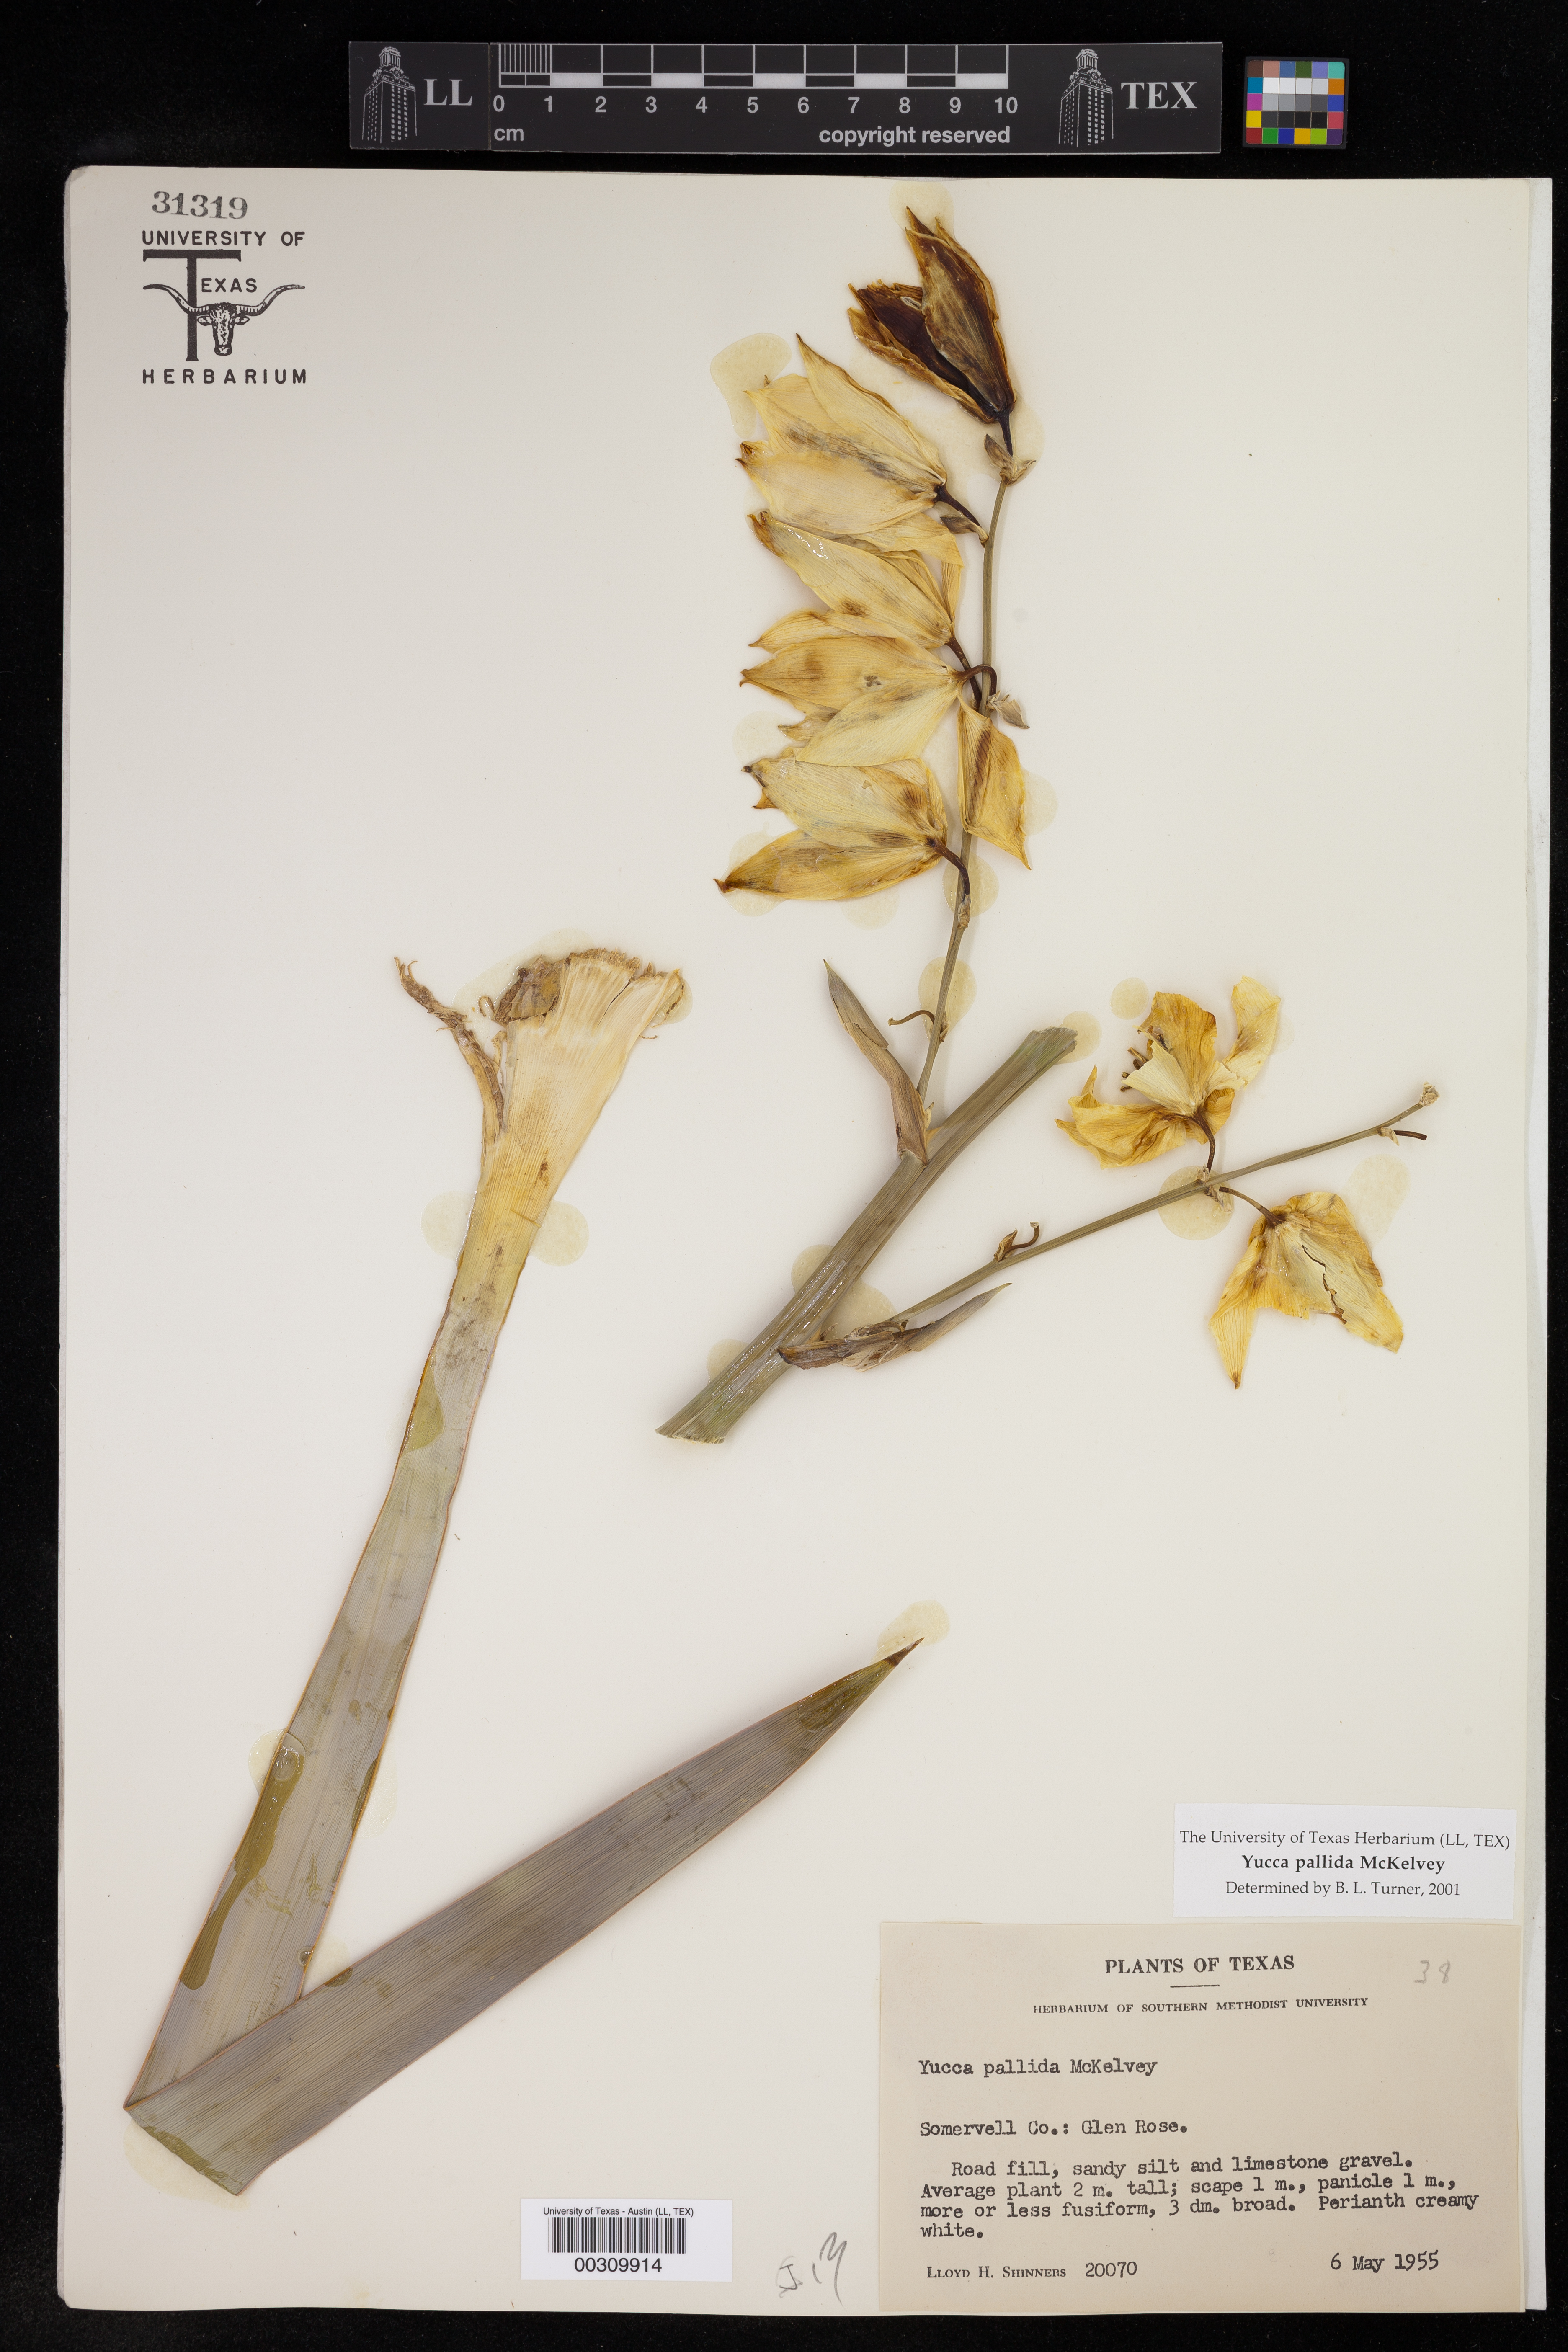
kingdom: Plantae
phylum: Tracheophyta
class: Liliopsida
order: Asparagales
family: Asparagaceae
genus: Yucca
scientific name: Yucca pallida
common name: Pale leaf yucca
